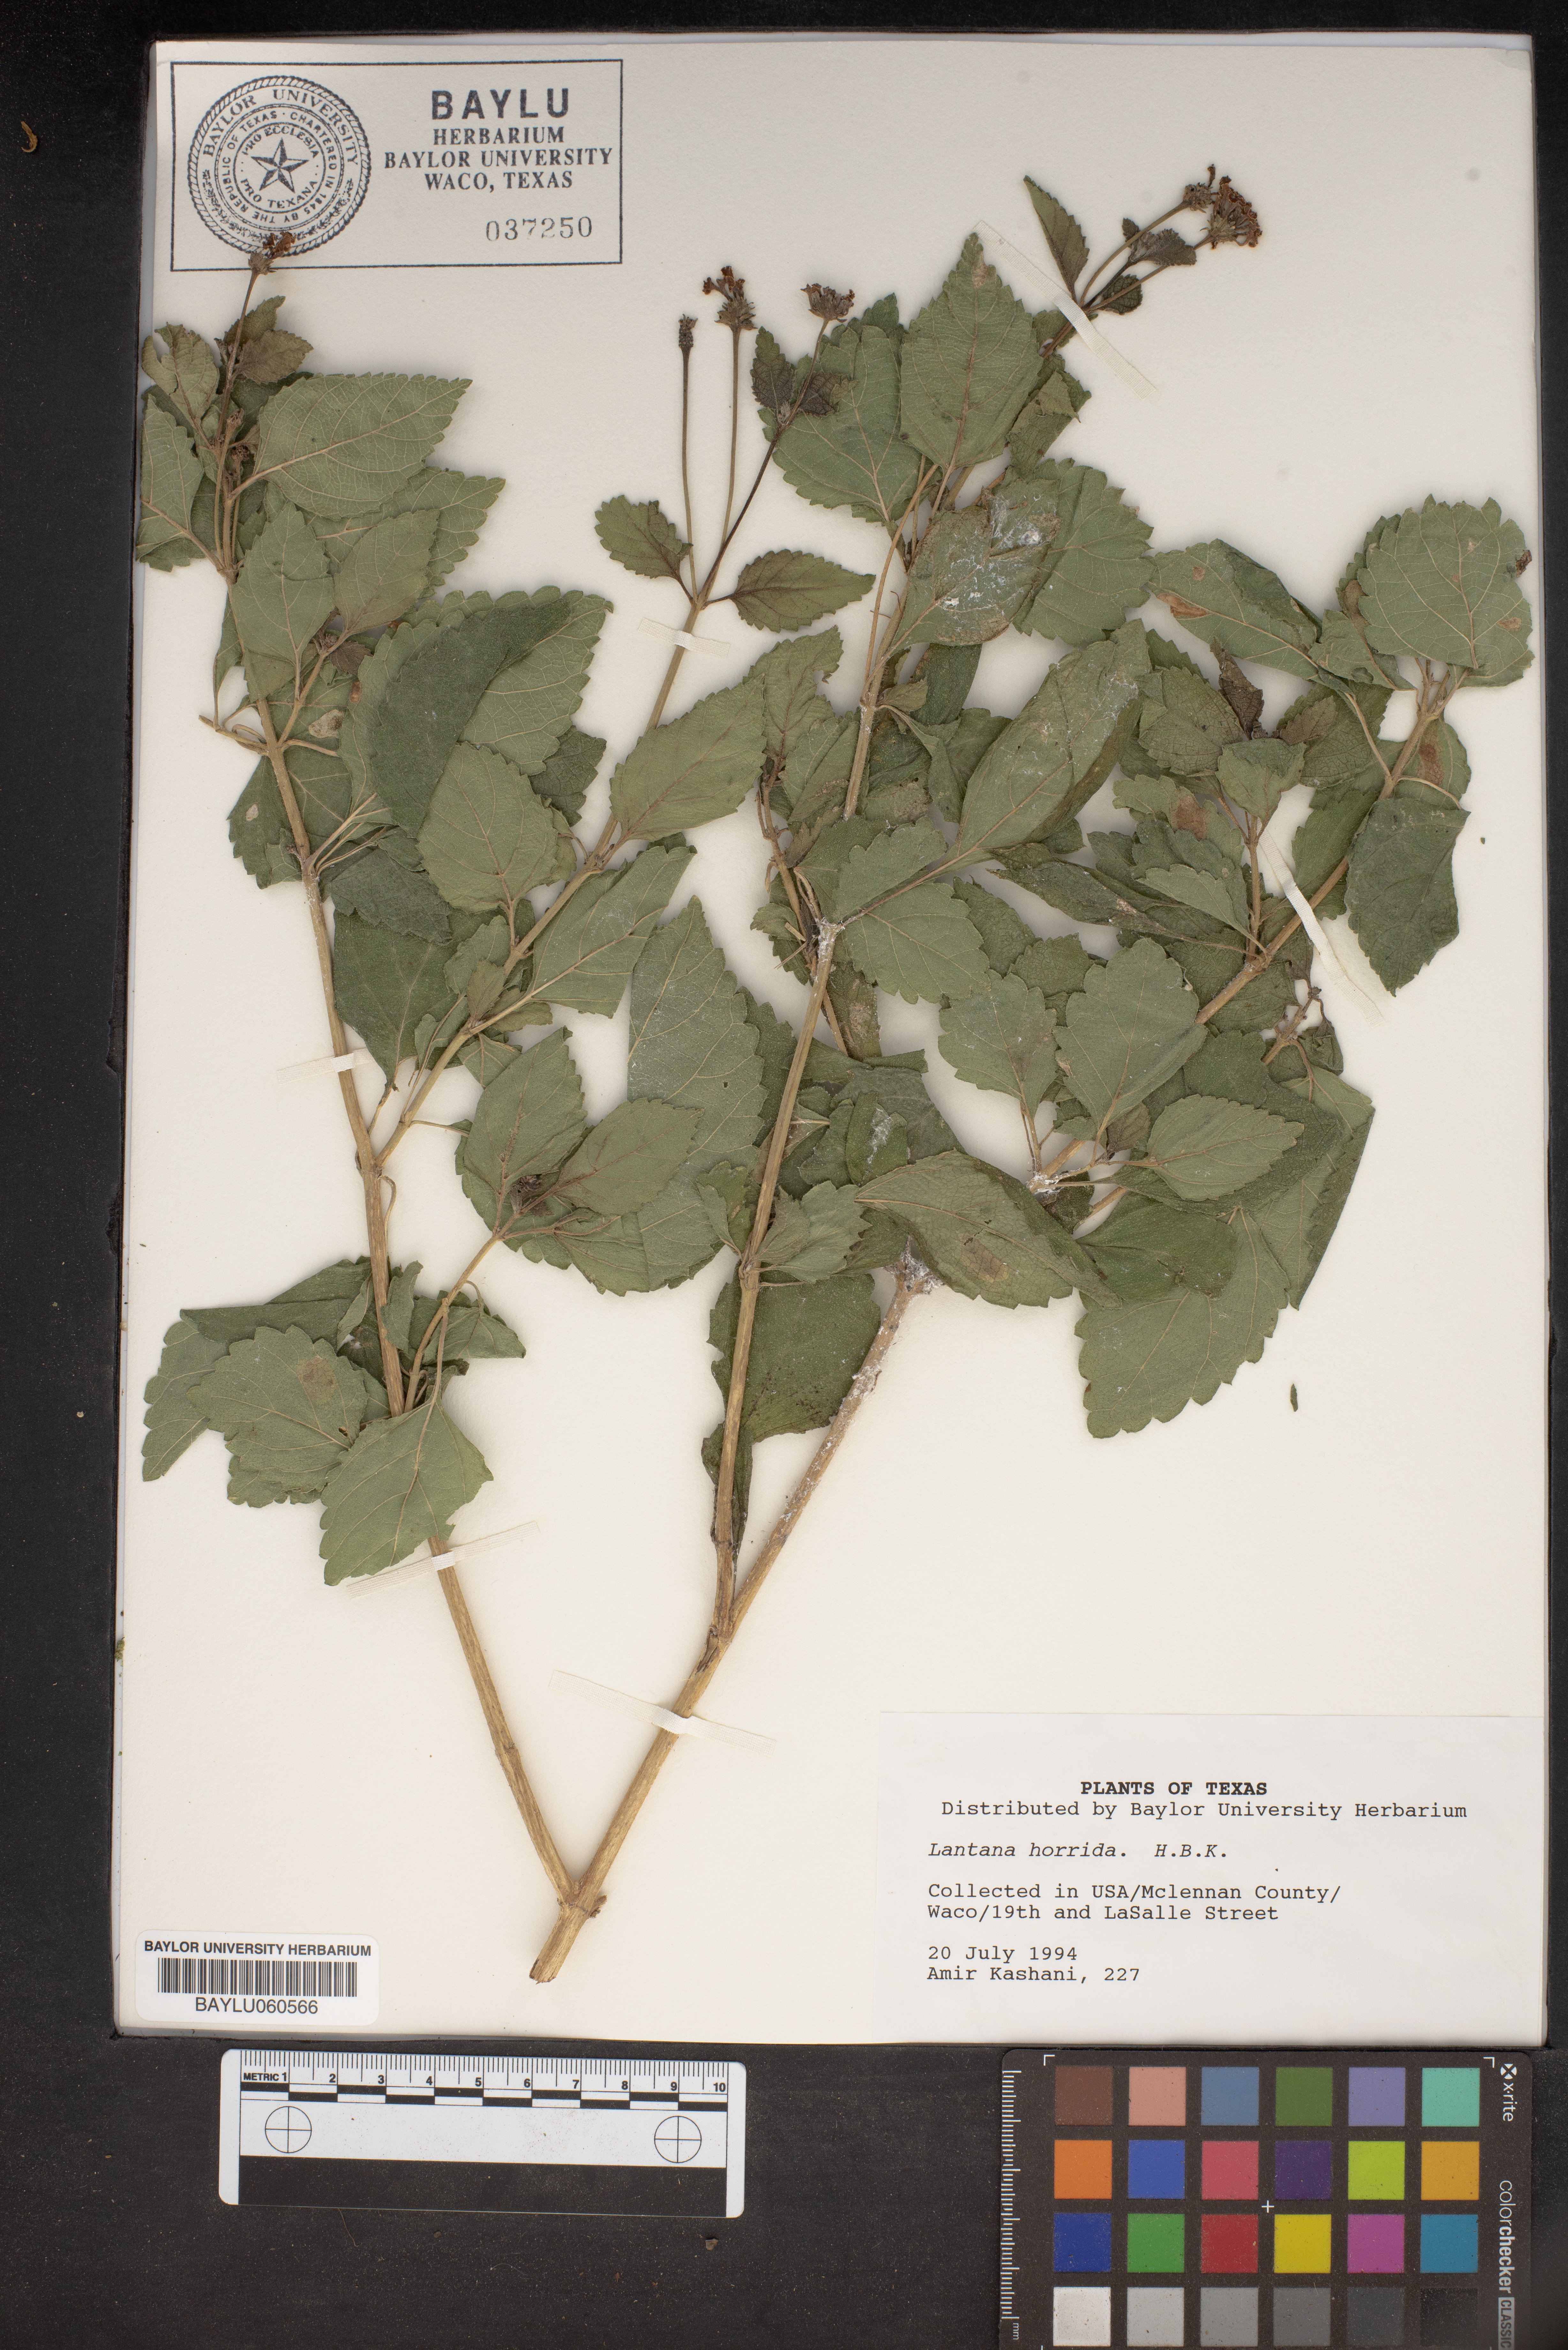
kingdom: Plantae
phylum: Tracheophyta
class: Magnoliopsida
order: Lamiales
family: Verbenaceae
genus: Lantana
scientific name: Lantana horrida
